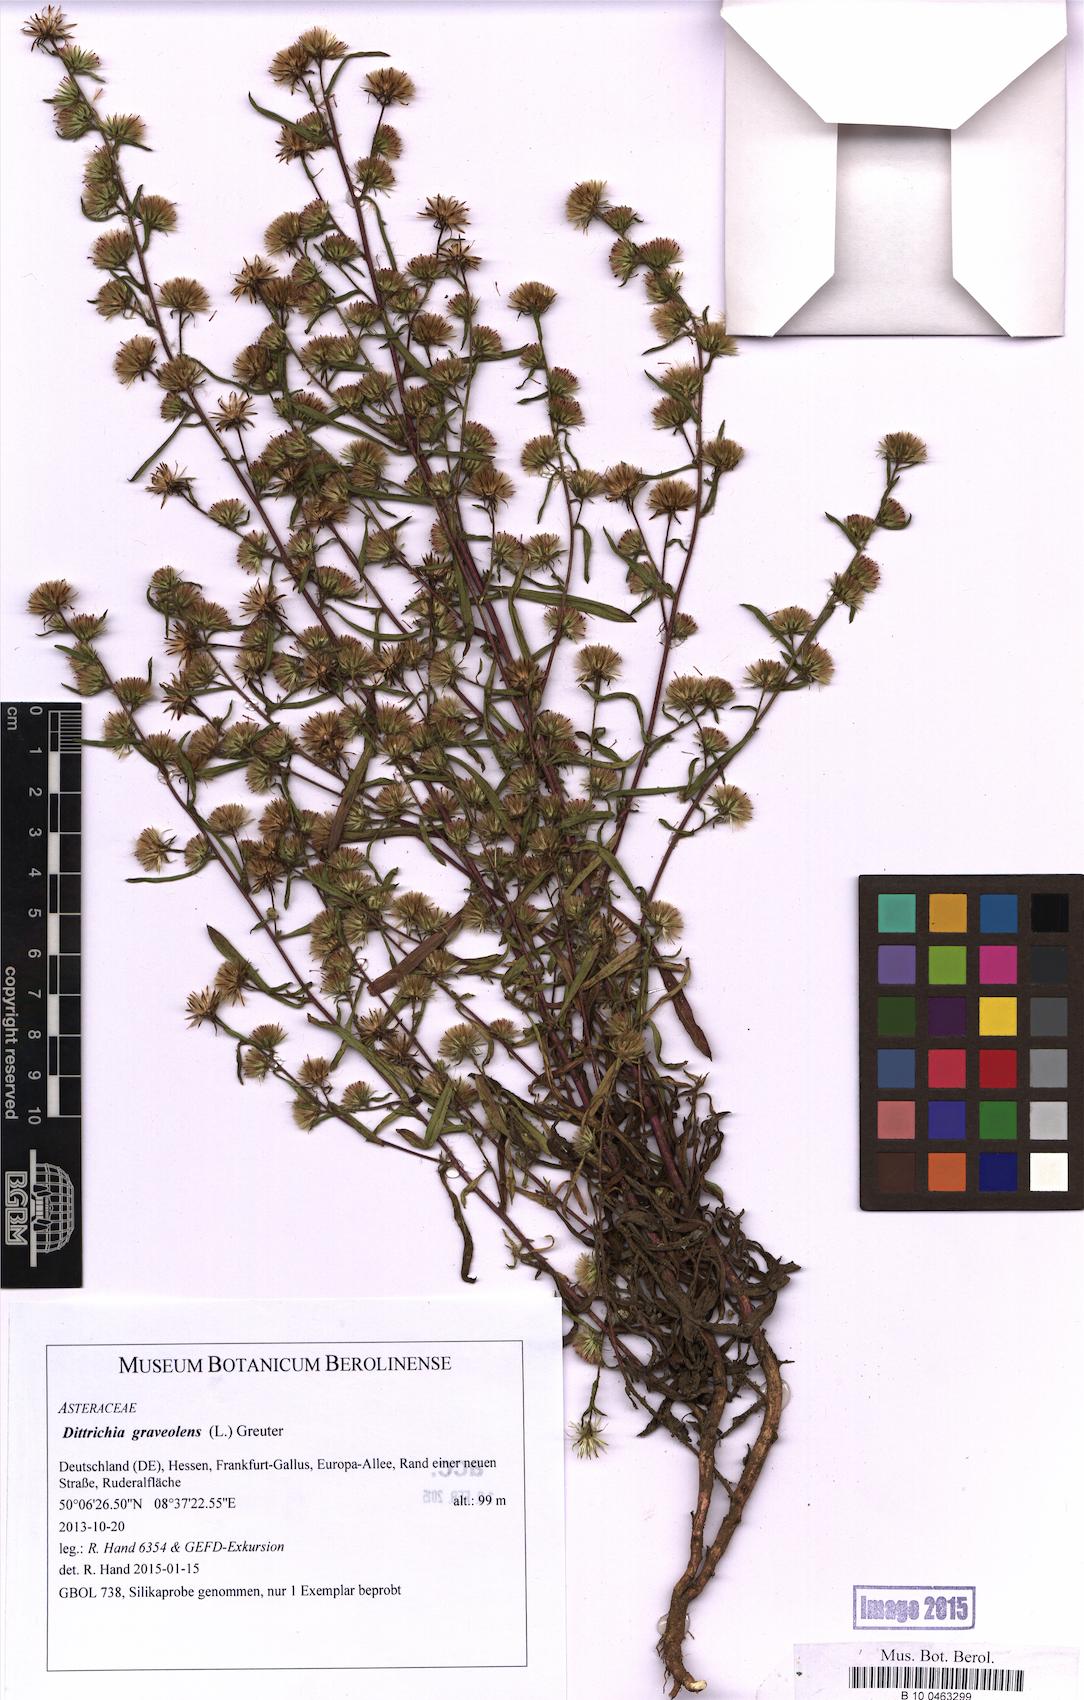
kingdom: Plantae
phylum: Tracheophyta
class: Magnoliopsida
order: Asterales
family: Asteraceae
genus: Dittrichia
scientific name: Dittrichia graveolens
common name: Stinking fleabane
